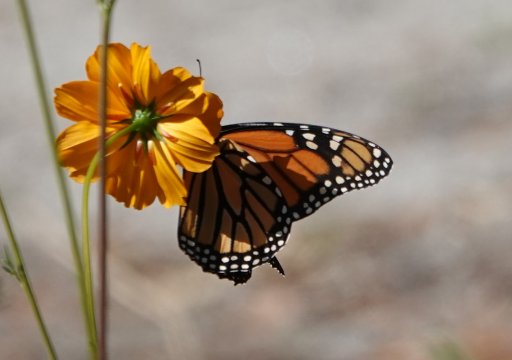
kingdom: Animalia
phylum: Arthropoda
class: Insecta
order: Lepidoptera
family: Nymphalidae
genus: Danaus
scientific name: Danaus plexippus
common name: Monarch
